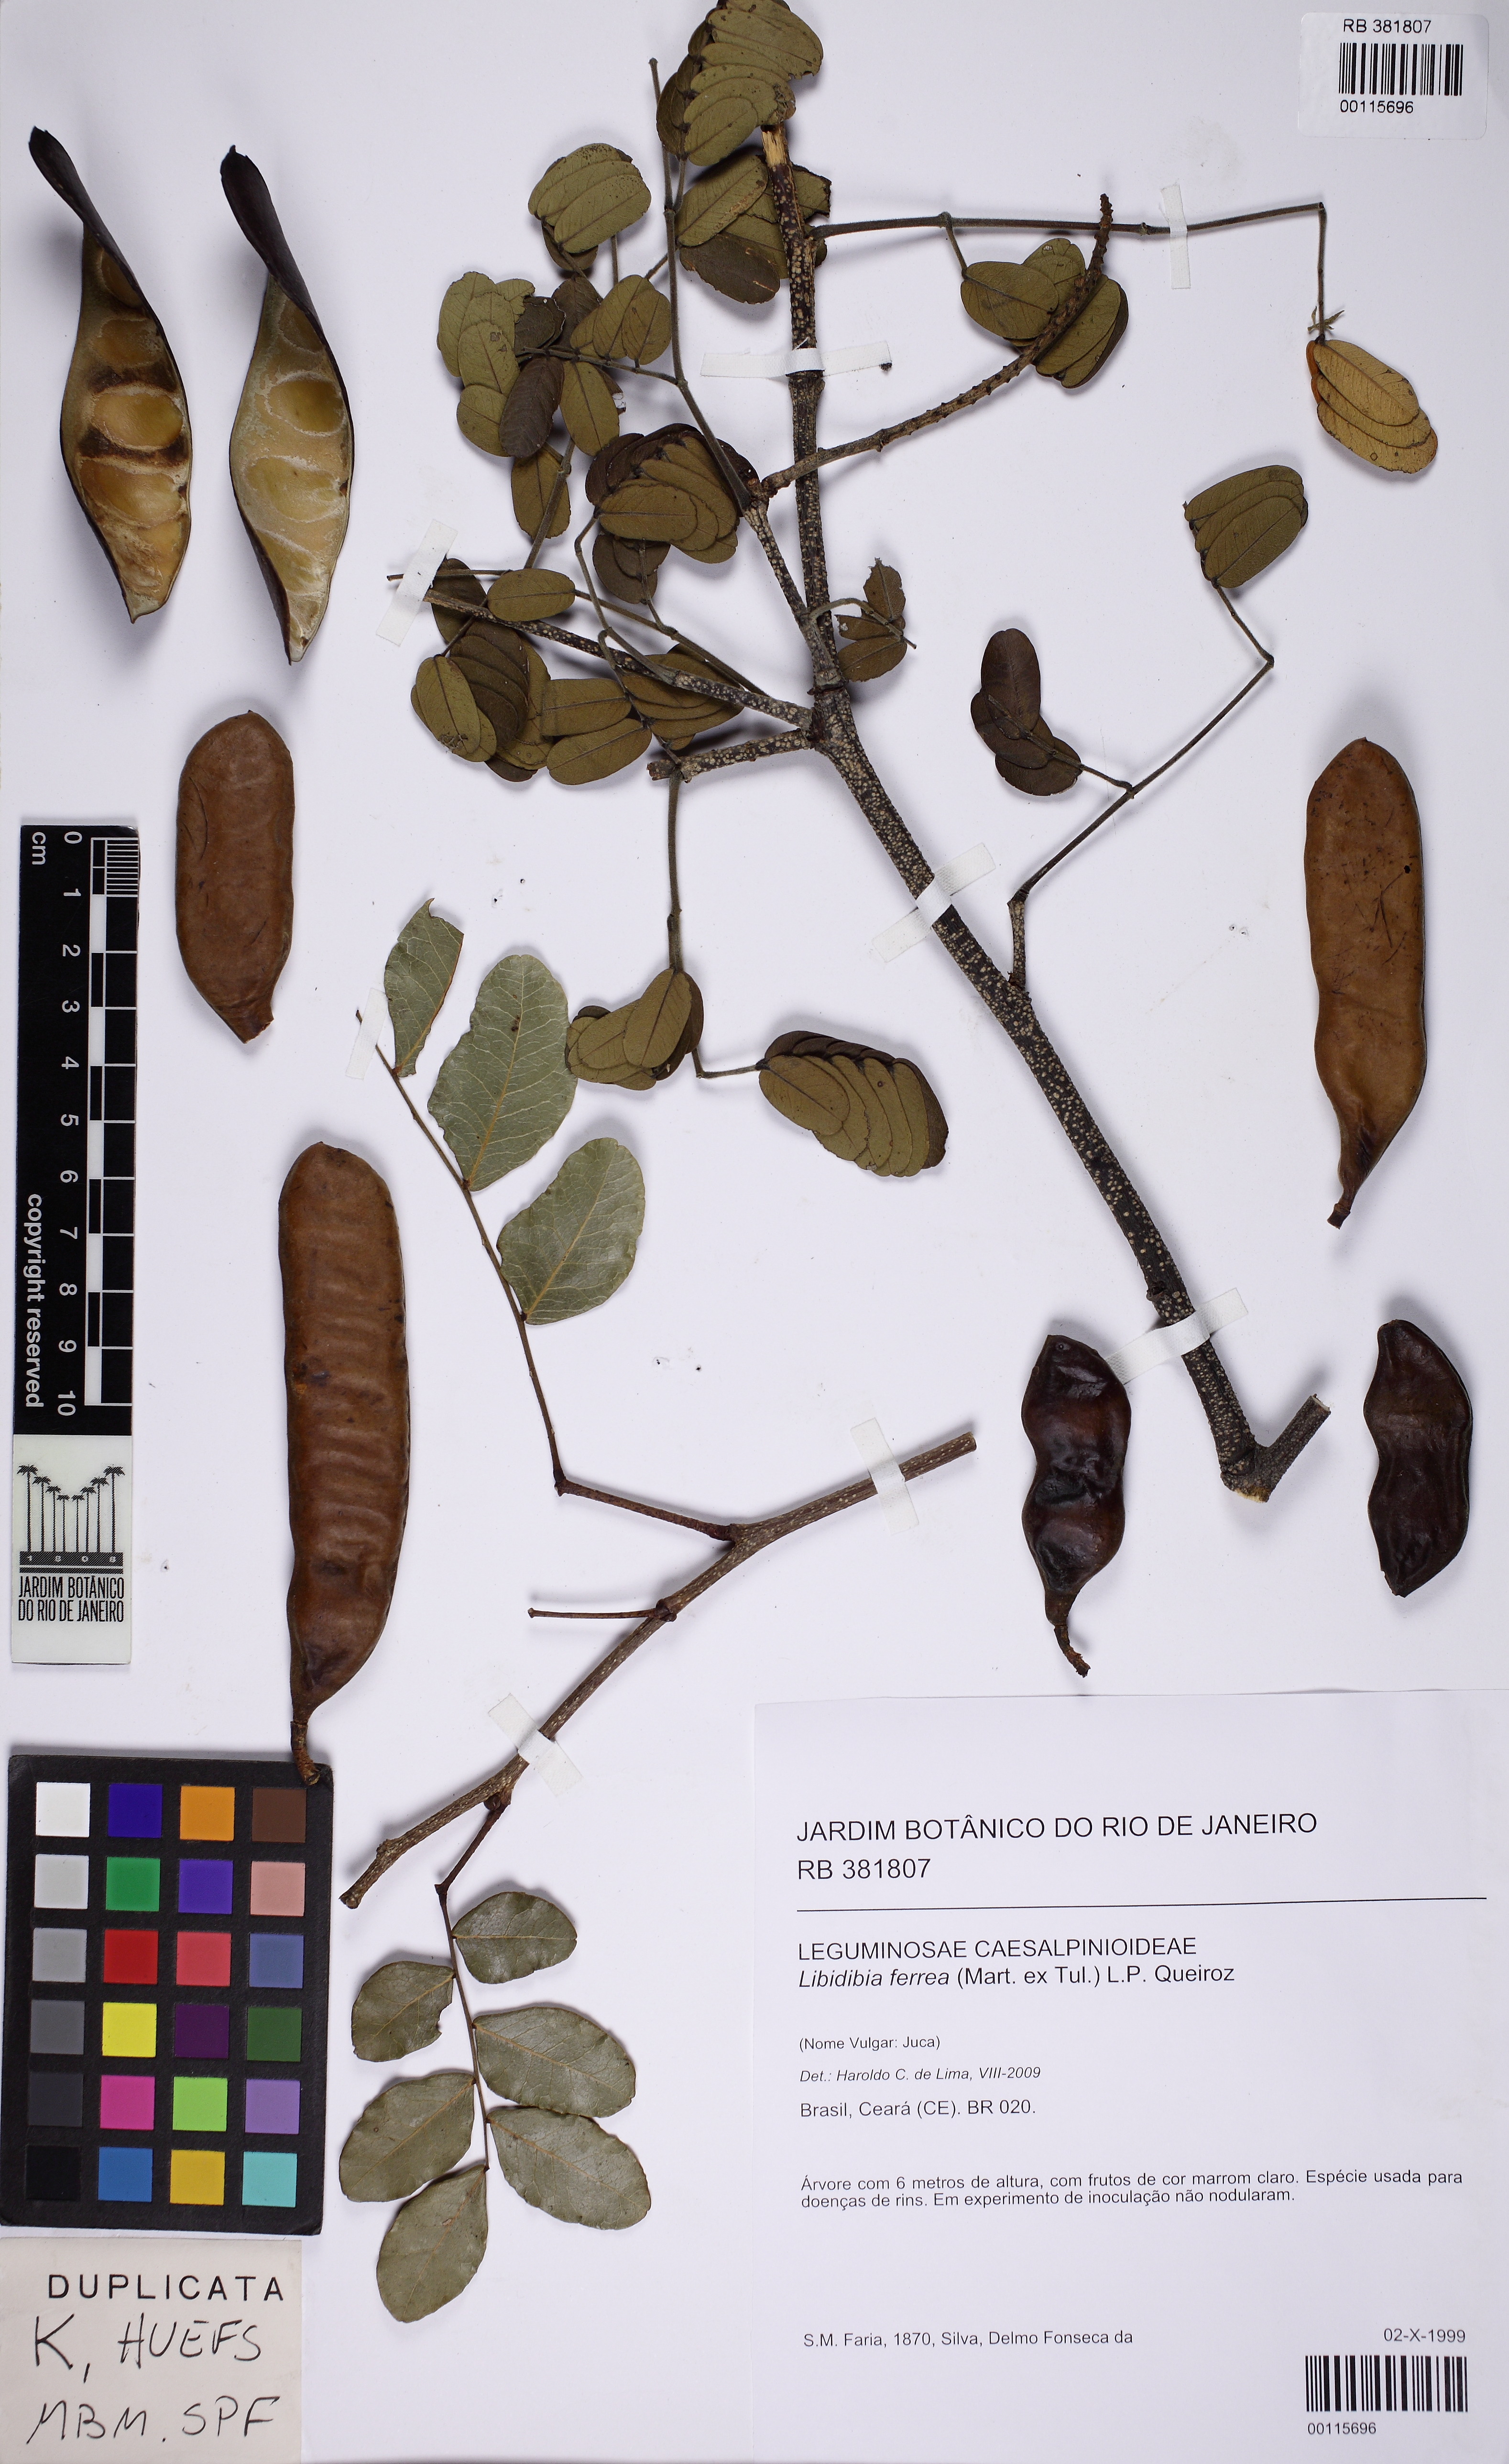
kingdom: Plantae
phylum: Tracheophyta
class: Magnoliopsida
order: Fabales
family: Fabaceae
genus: Libidibia
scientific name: Libidibia ferrea
